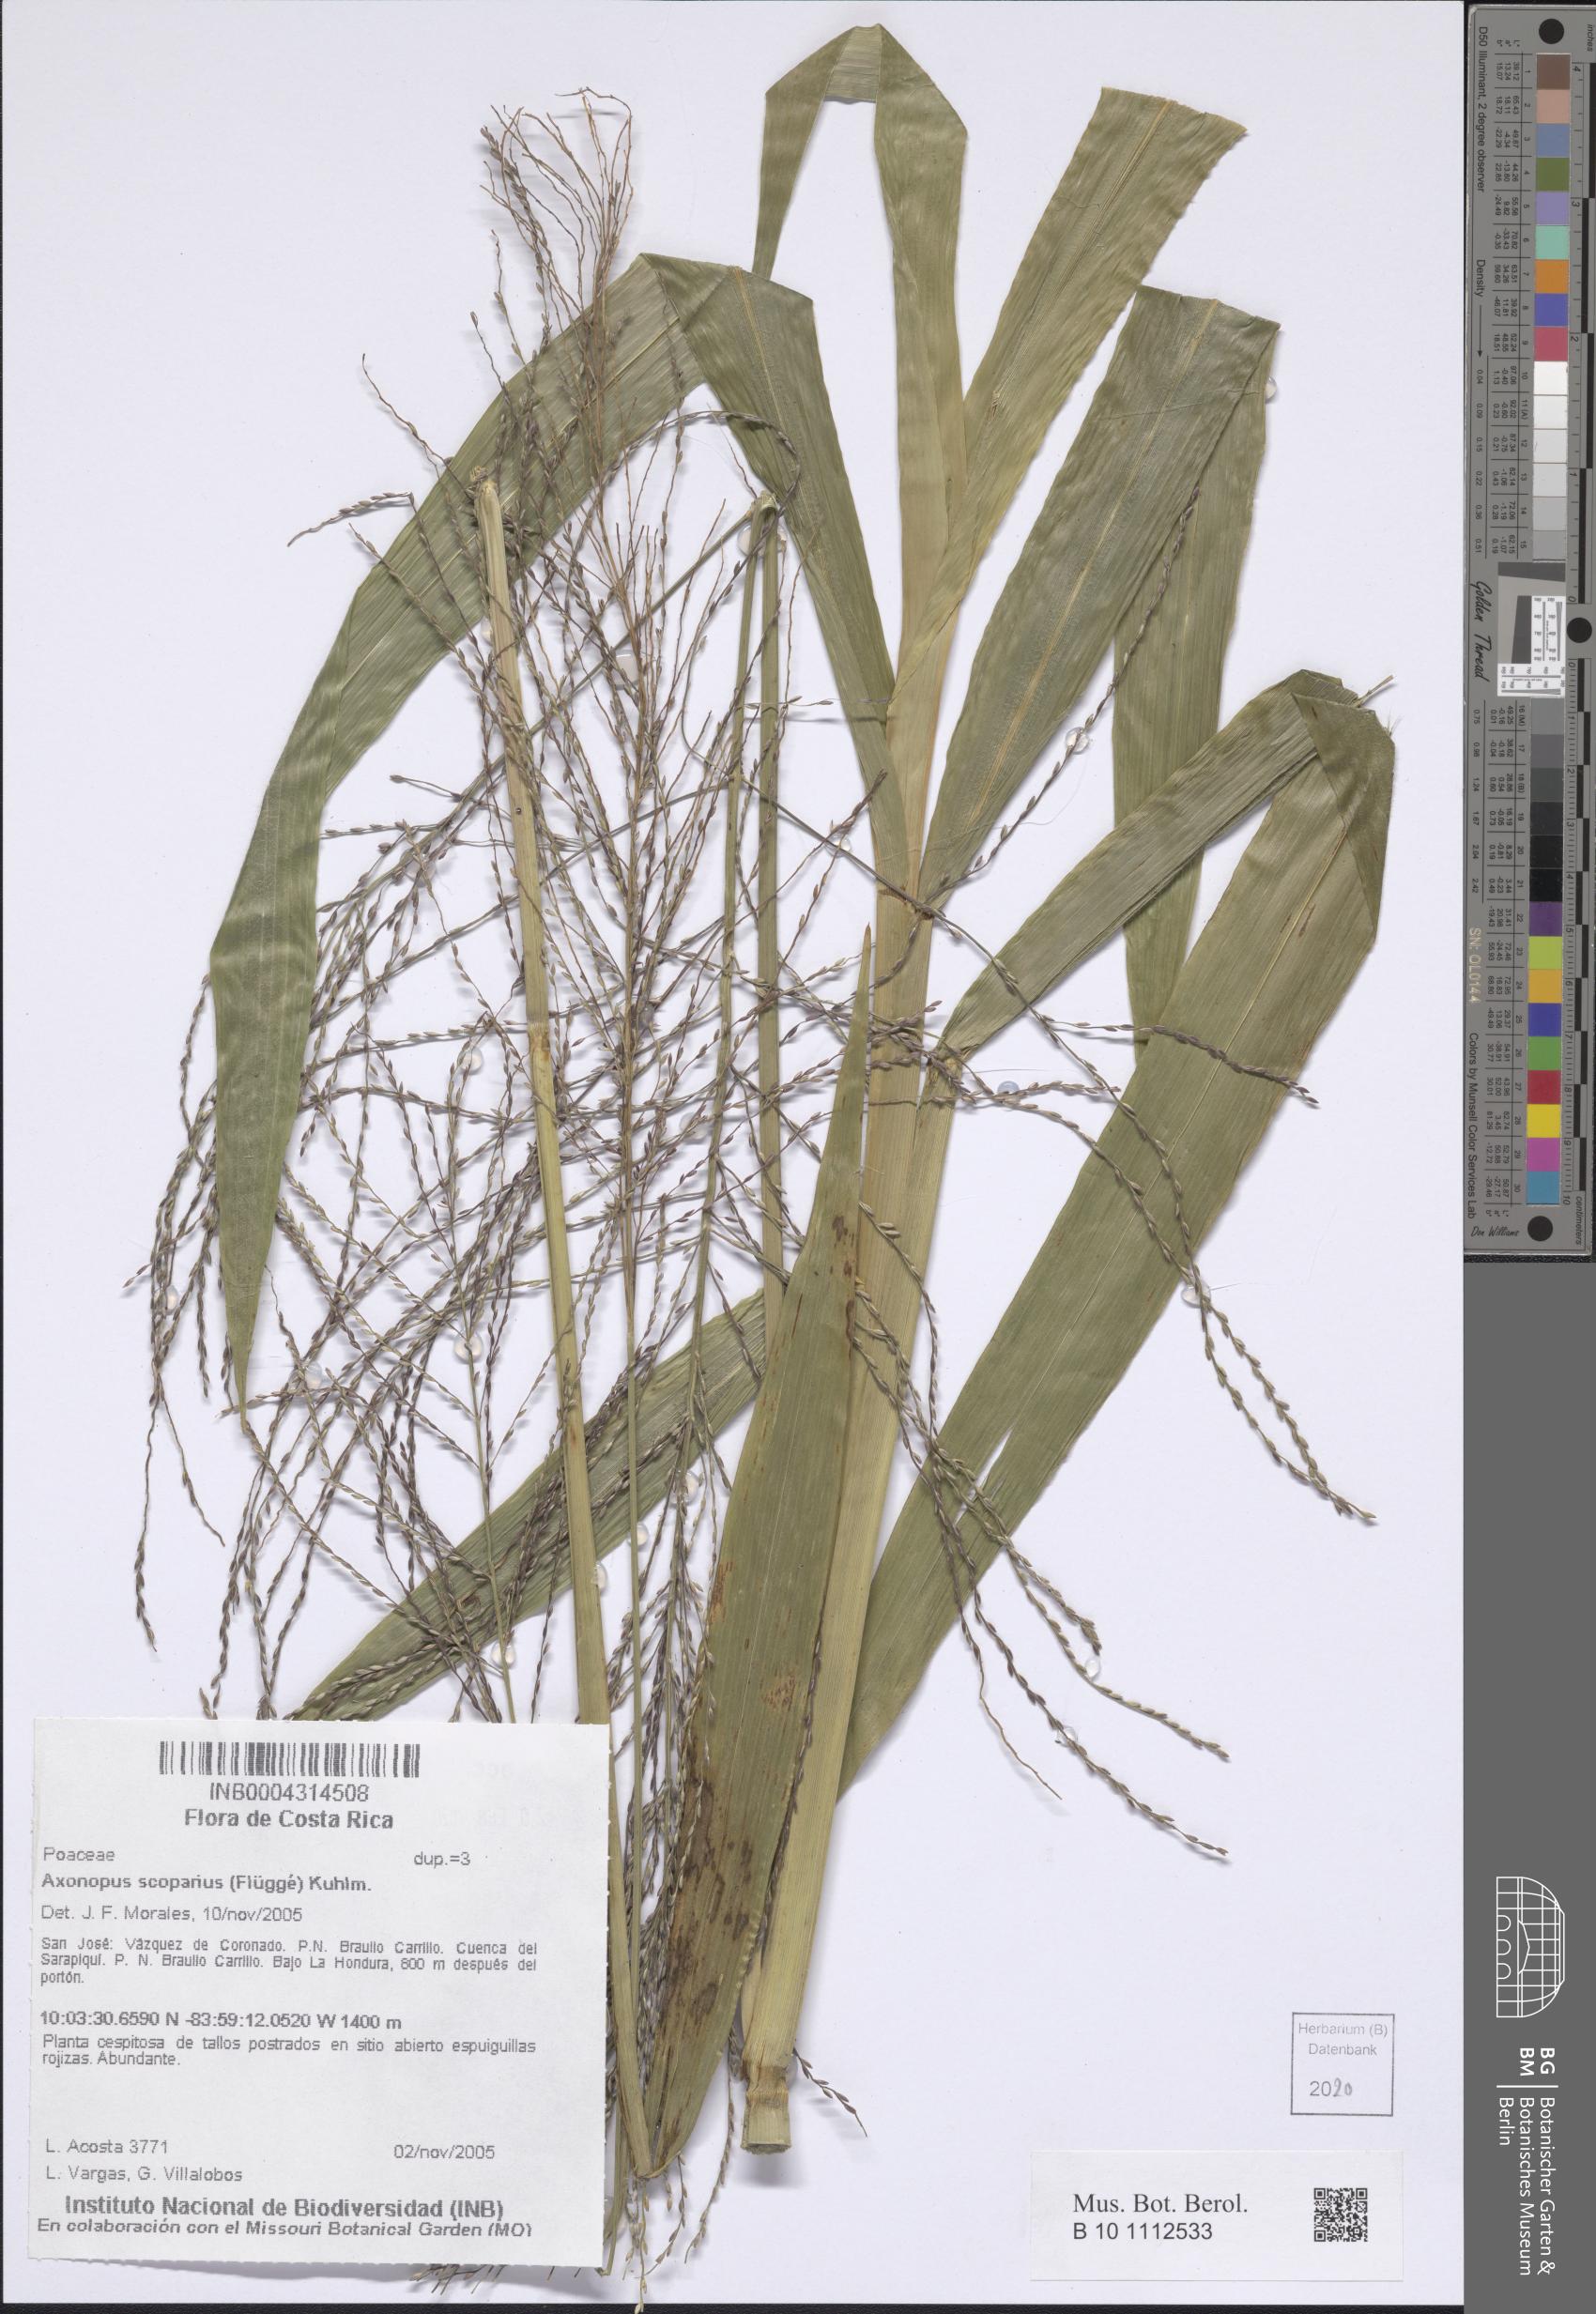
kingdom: Plantae
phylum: Tracheophyta
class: Liliopsida
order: Poales
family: Poaceae
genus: Axonopus
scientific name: Axonopus scoparius
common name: Imperial grass
